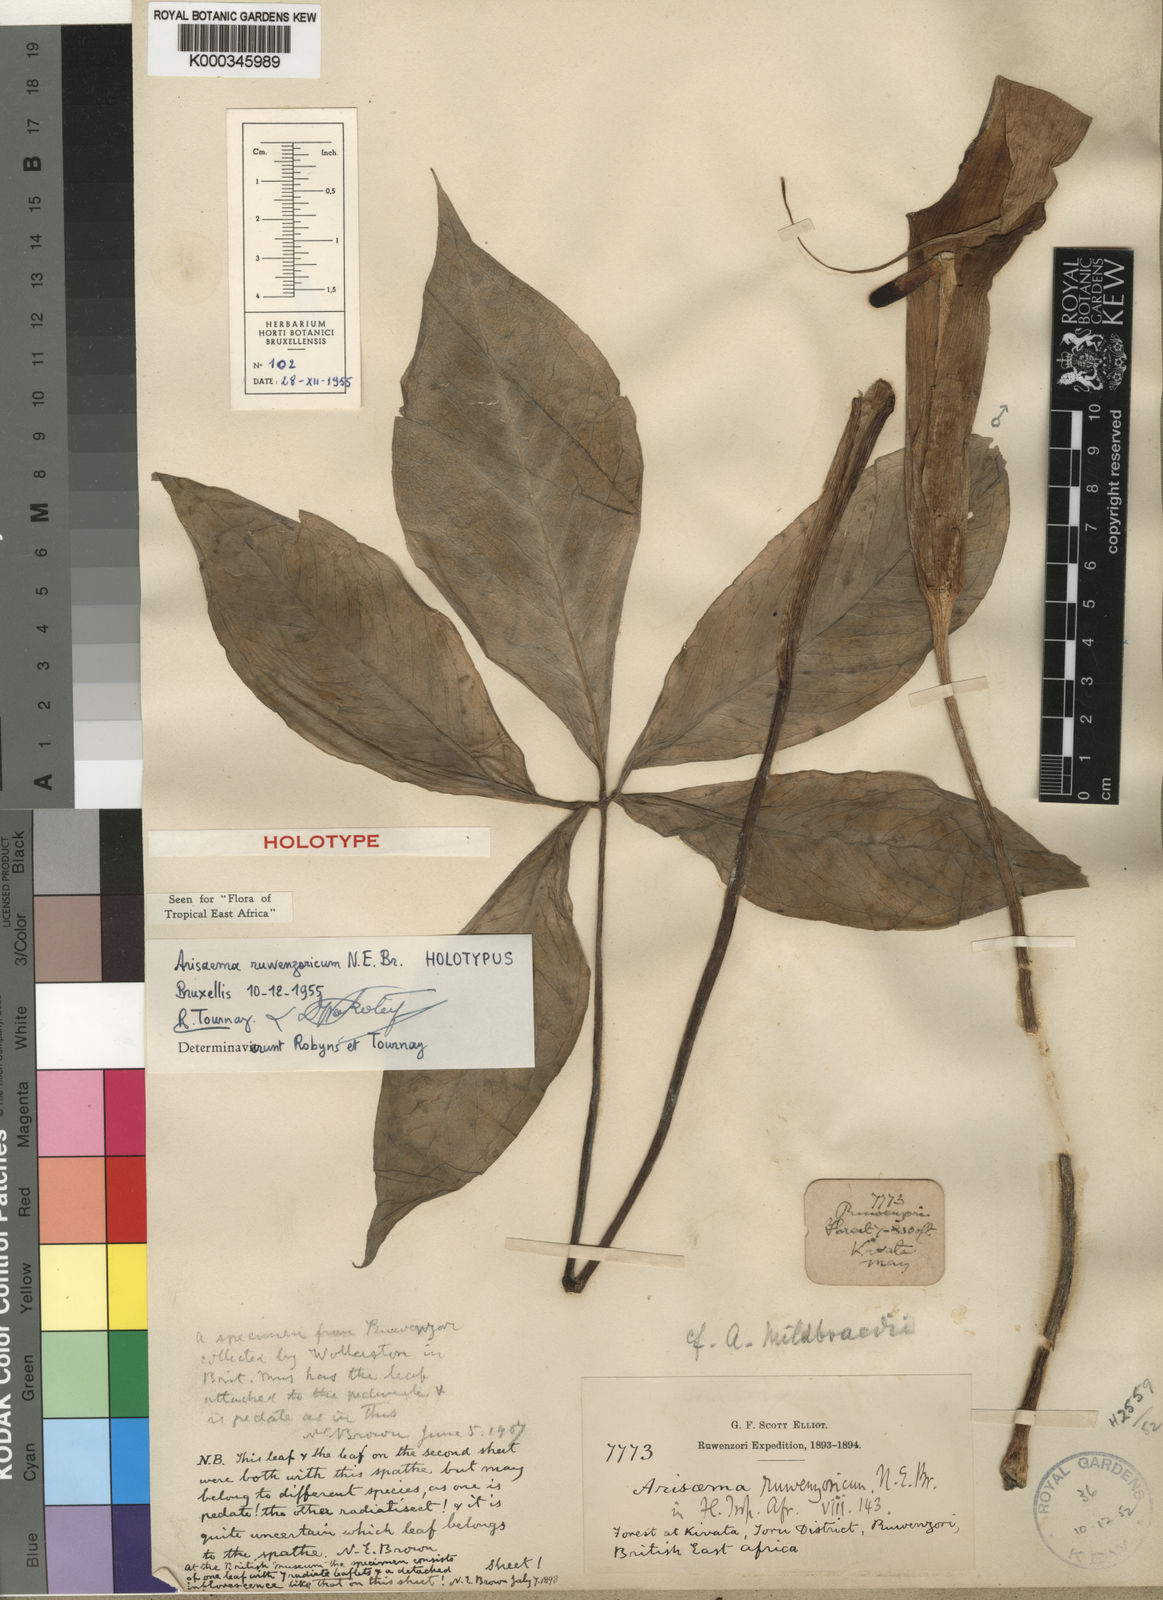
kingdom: Plantae
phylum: Tracheophyta
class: Liliopsida
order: Alismatales
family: Araceae
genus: Arisaema
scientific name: Arisaema ruwenzoricum
